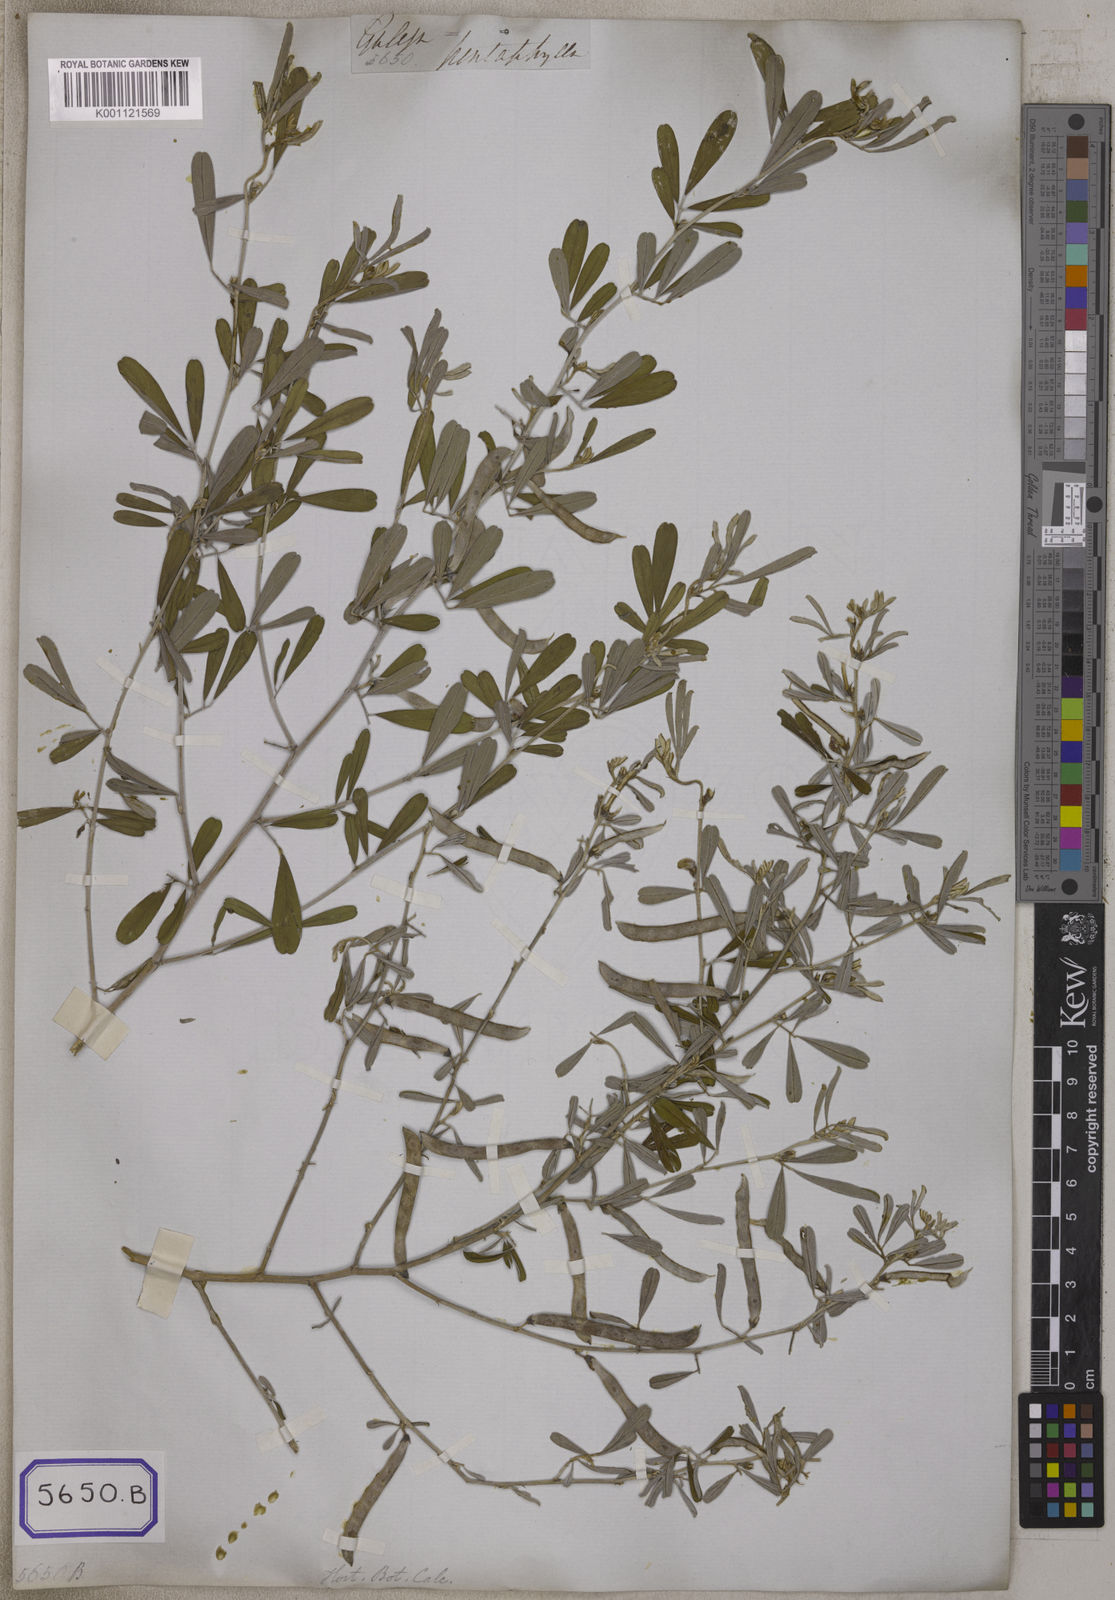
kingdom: Plantae
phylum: Tracheophyta
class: Magnoliopsida
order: Fabales
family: Fabaceae
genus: Tephrosia
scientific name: Tephrosia
